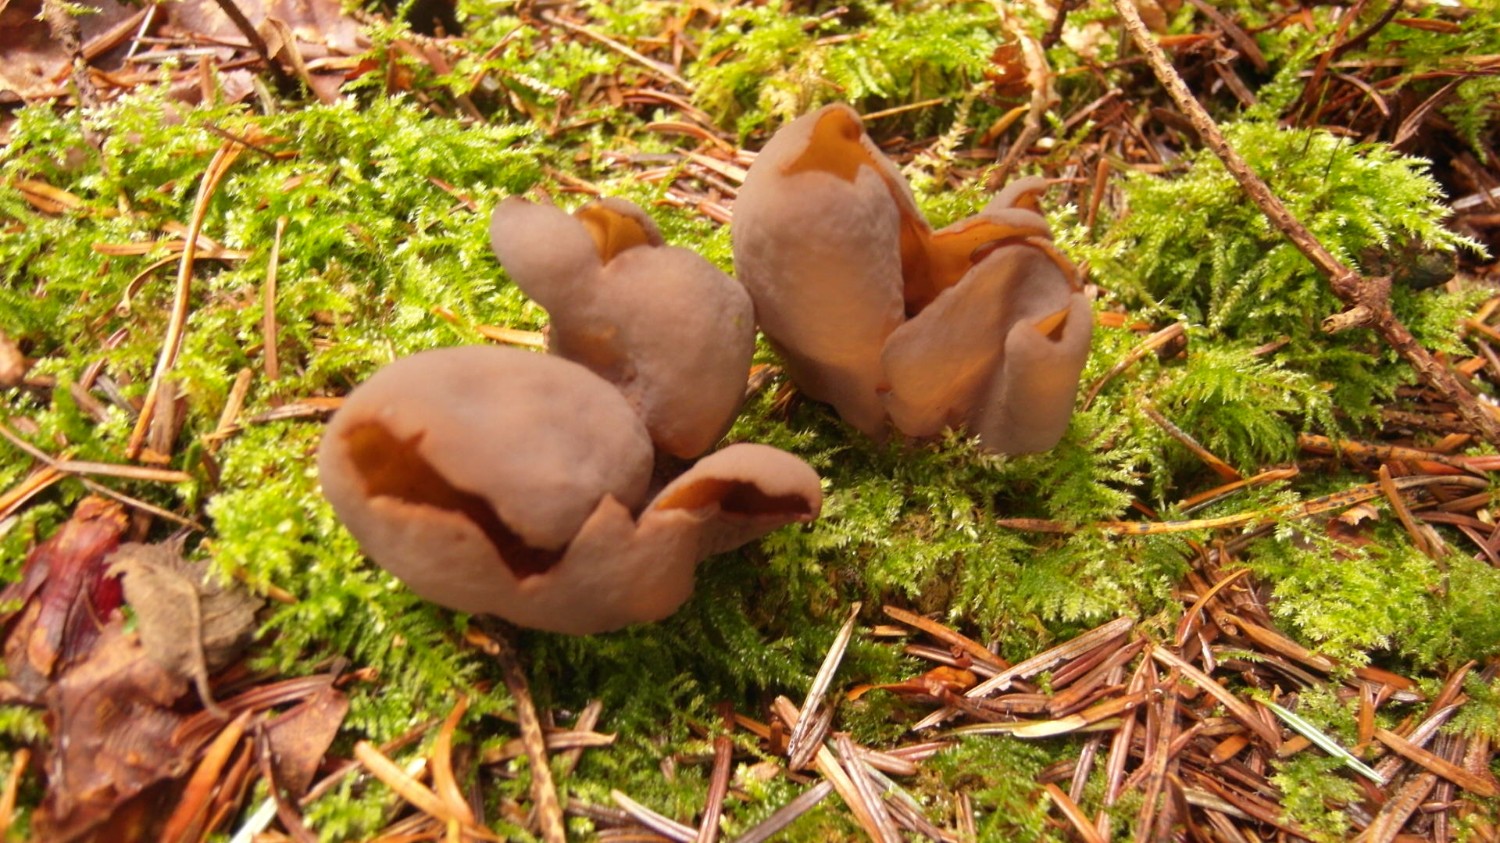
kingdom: Fungi
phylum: Ascomycota
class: Pezizomycetes
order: Pezizales
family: Otideaceae
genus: Otidea
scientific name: Otidea bufonia
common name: brun ørebæger
